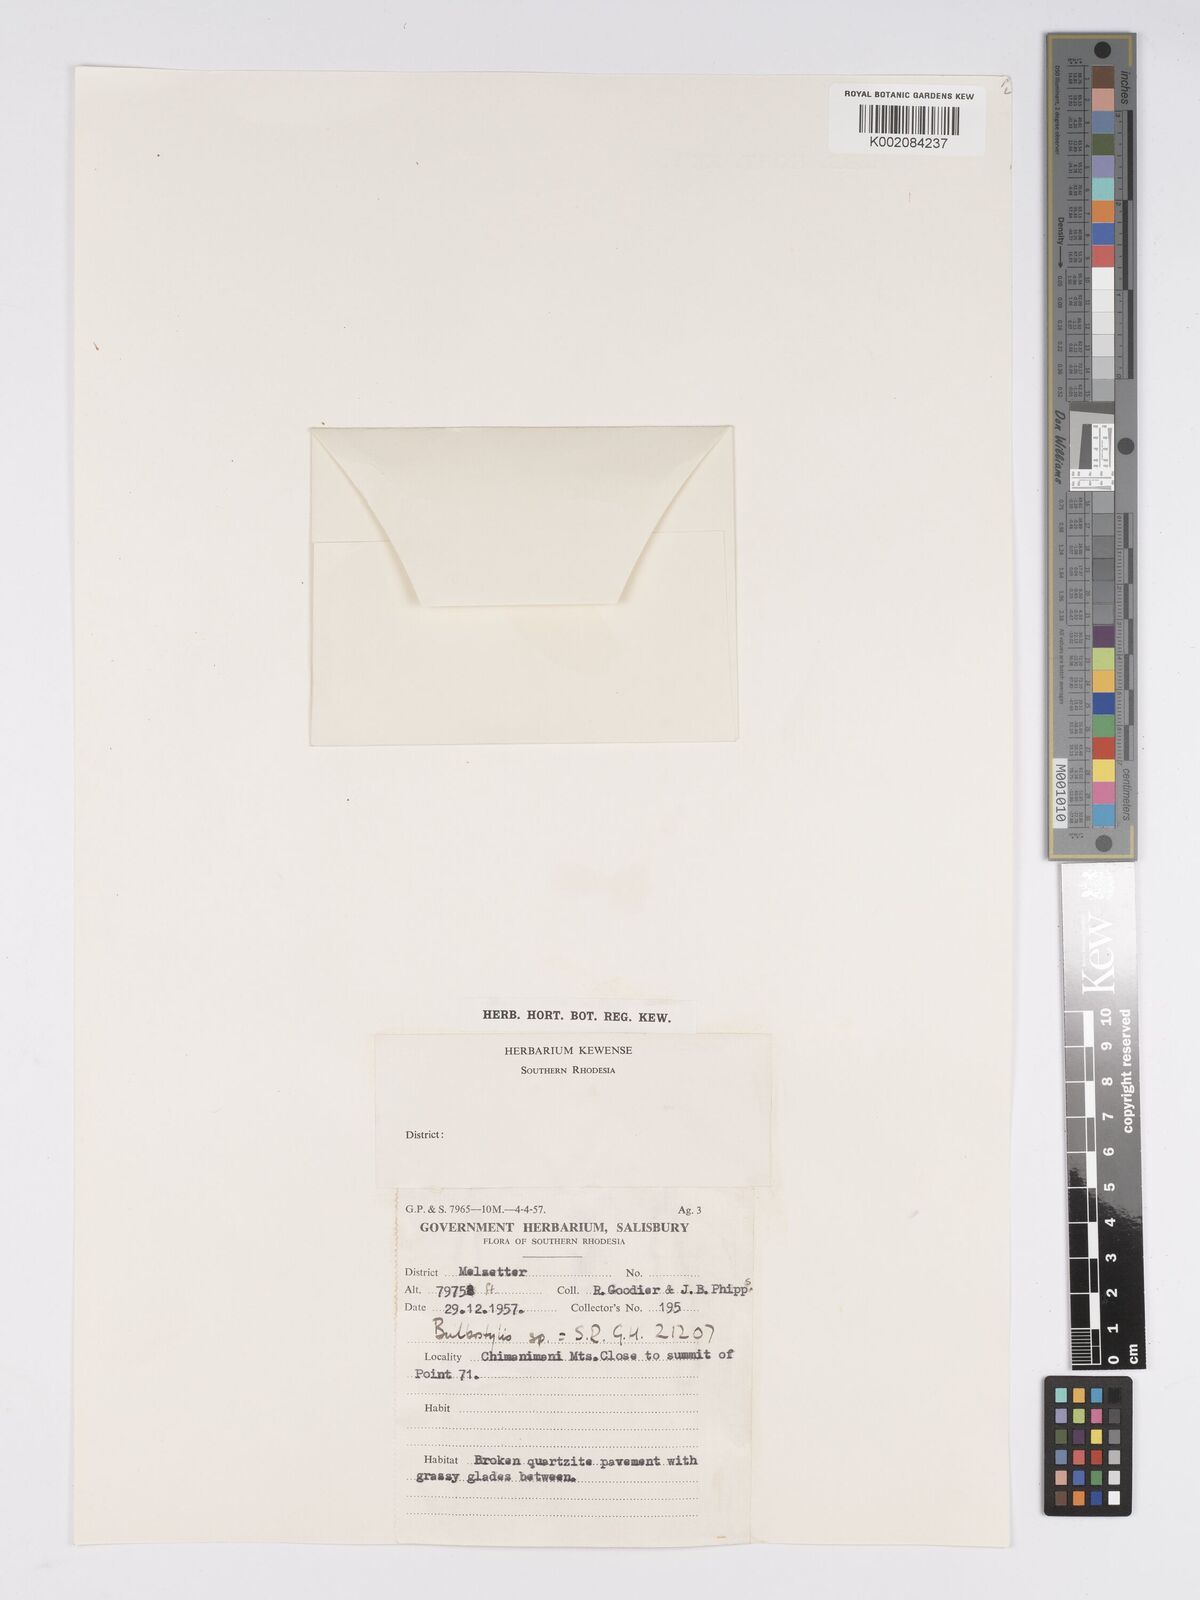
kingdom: Plantae
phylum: Tracheophyta
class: Liliopsida
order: Poales
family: Cyperaceae
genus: Bulbostylis
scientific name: Bulbostylis
